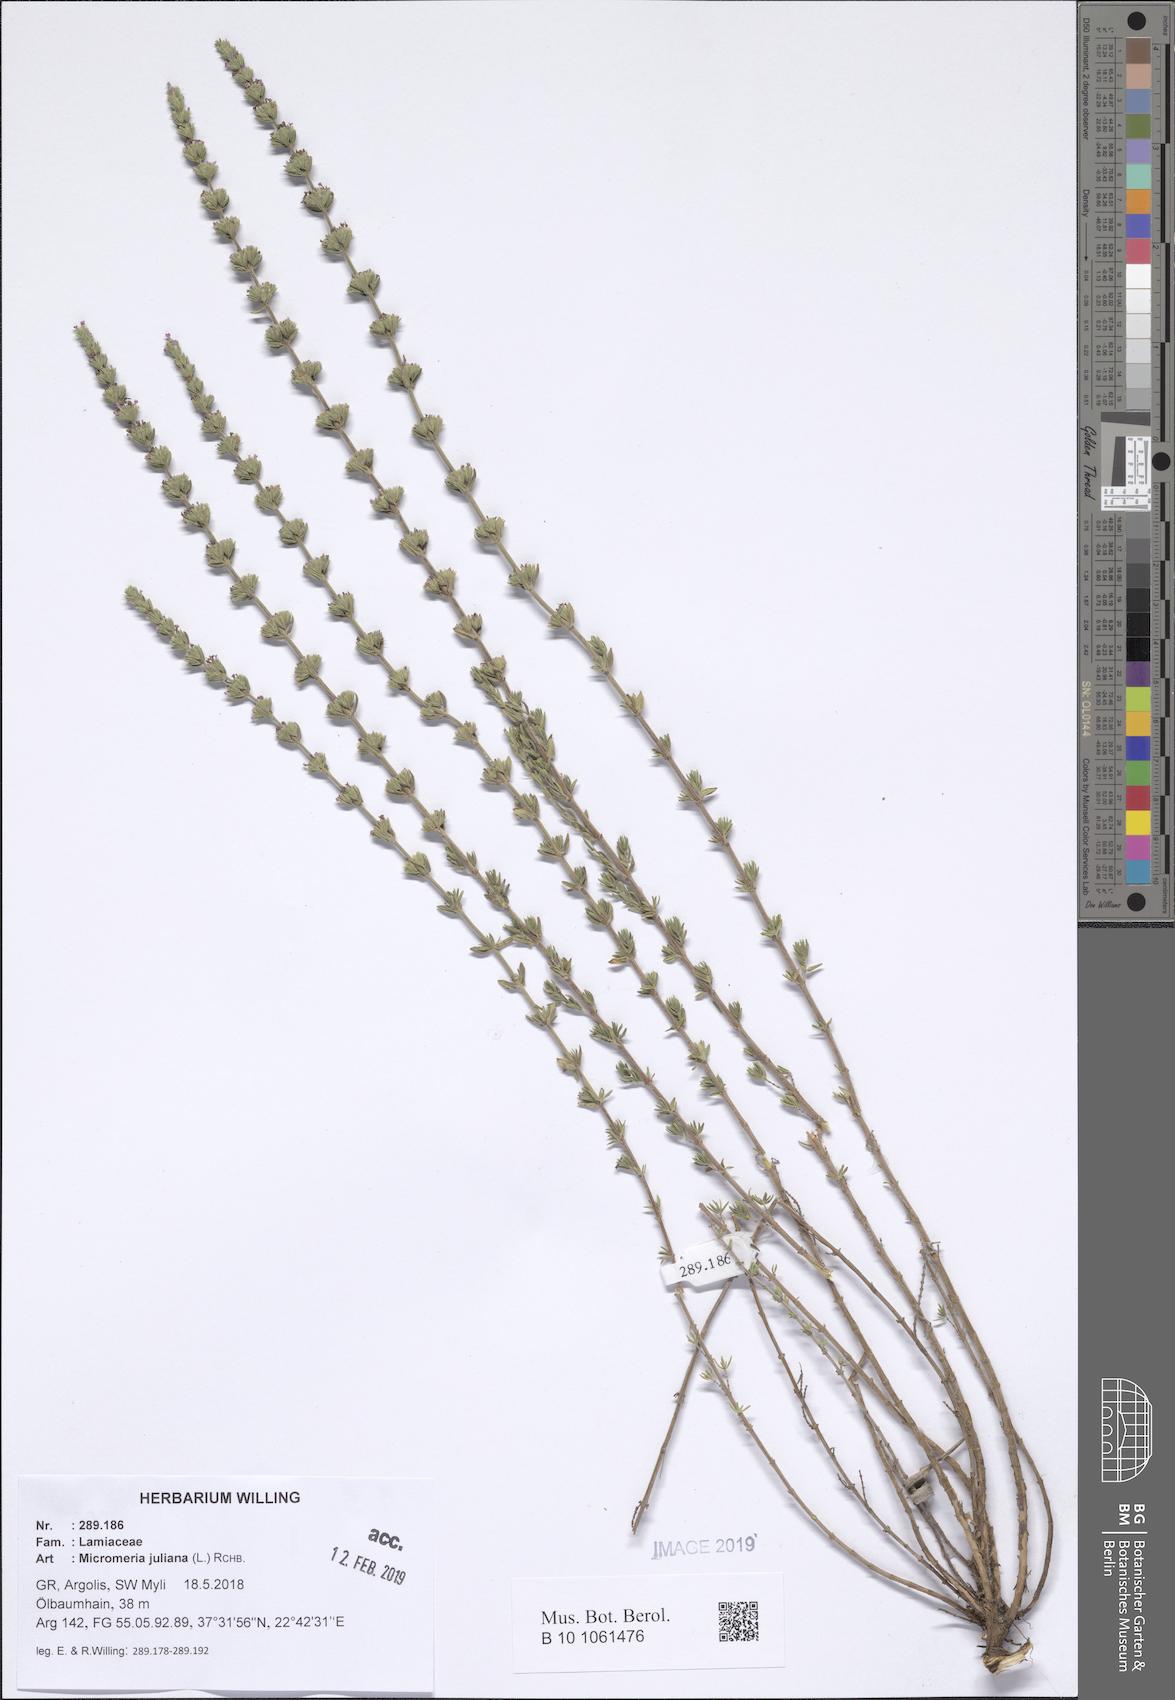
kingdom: Plantae
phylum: Tracheophyta
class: Magnoliopsida
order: Lamiales
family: Lamiaceae
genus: Micromeria
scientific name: Micromeria juliana
